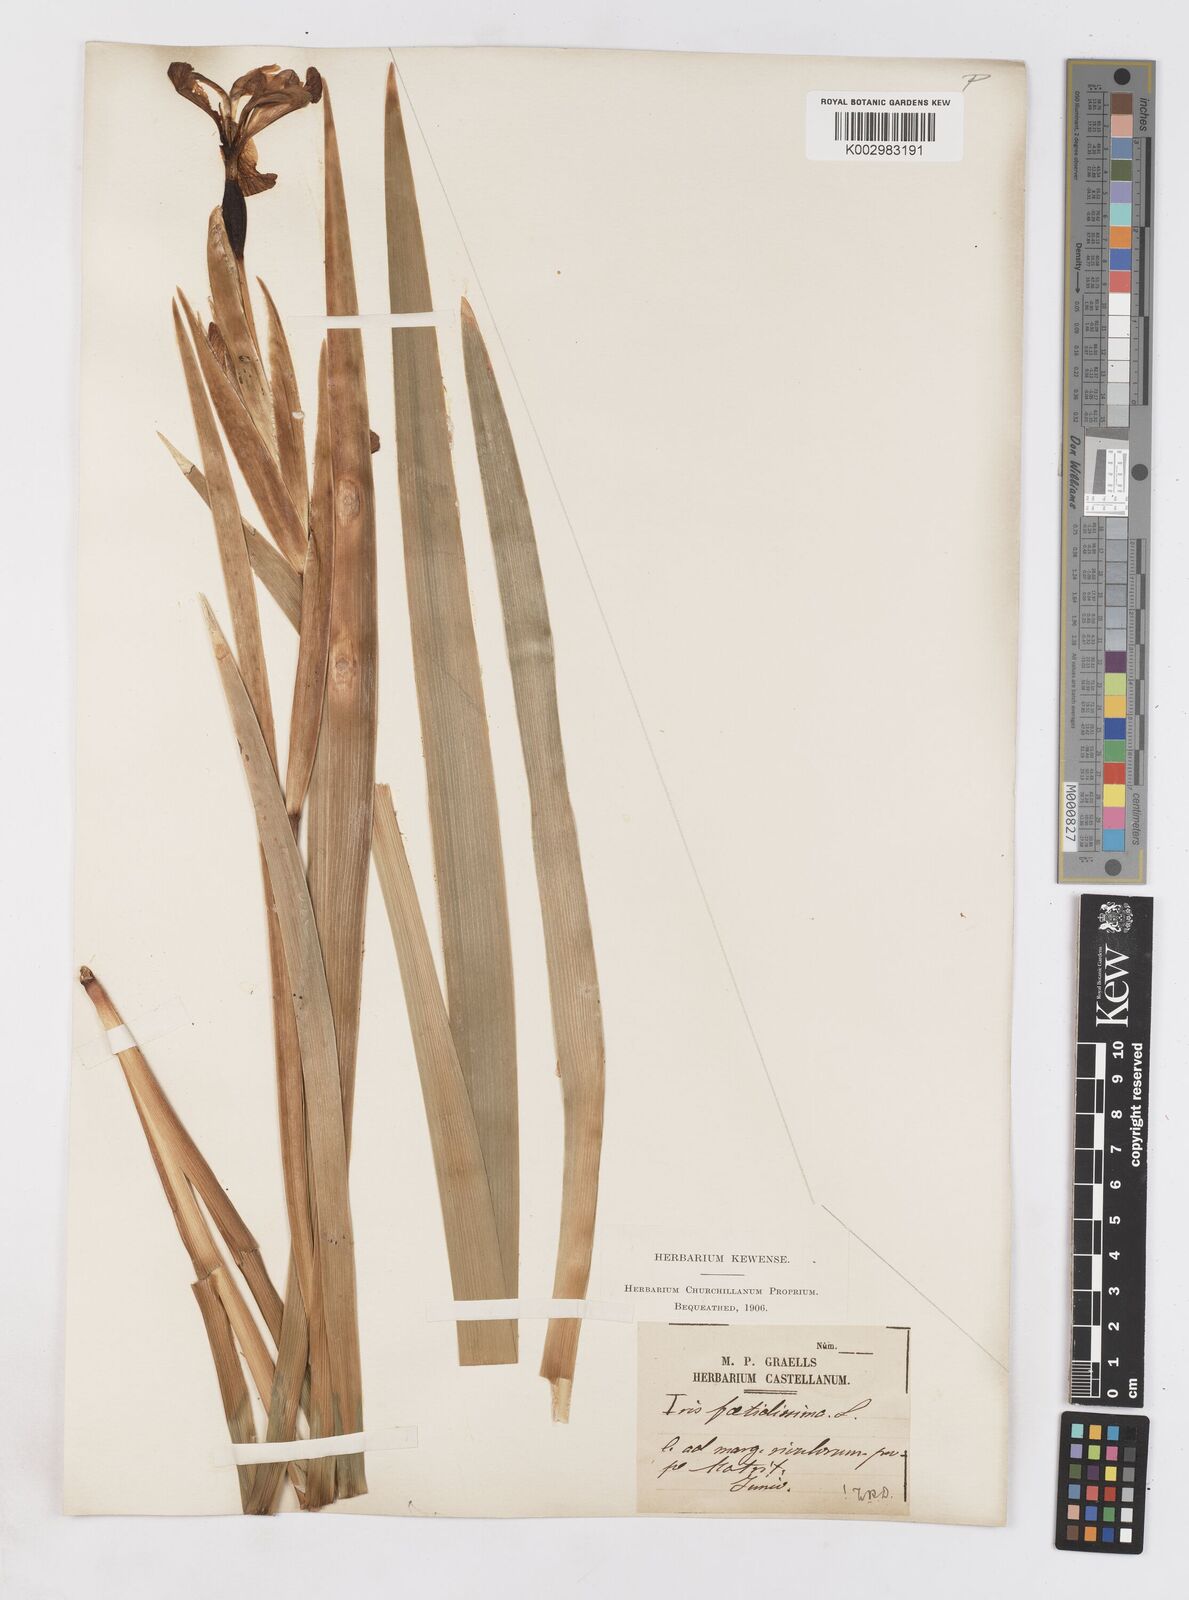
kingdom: Plantae
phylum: Tracheophyta
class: Liliopsida
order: Asparagales
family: Iridaceae
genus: Iris
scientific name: Iris foetidissima
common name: Stinking iris
